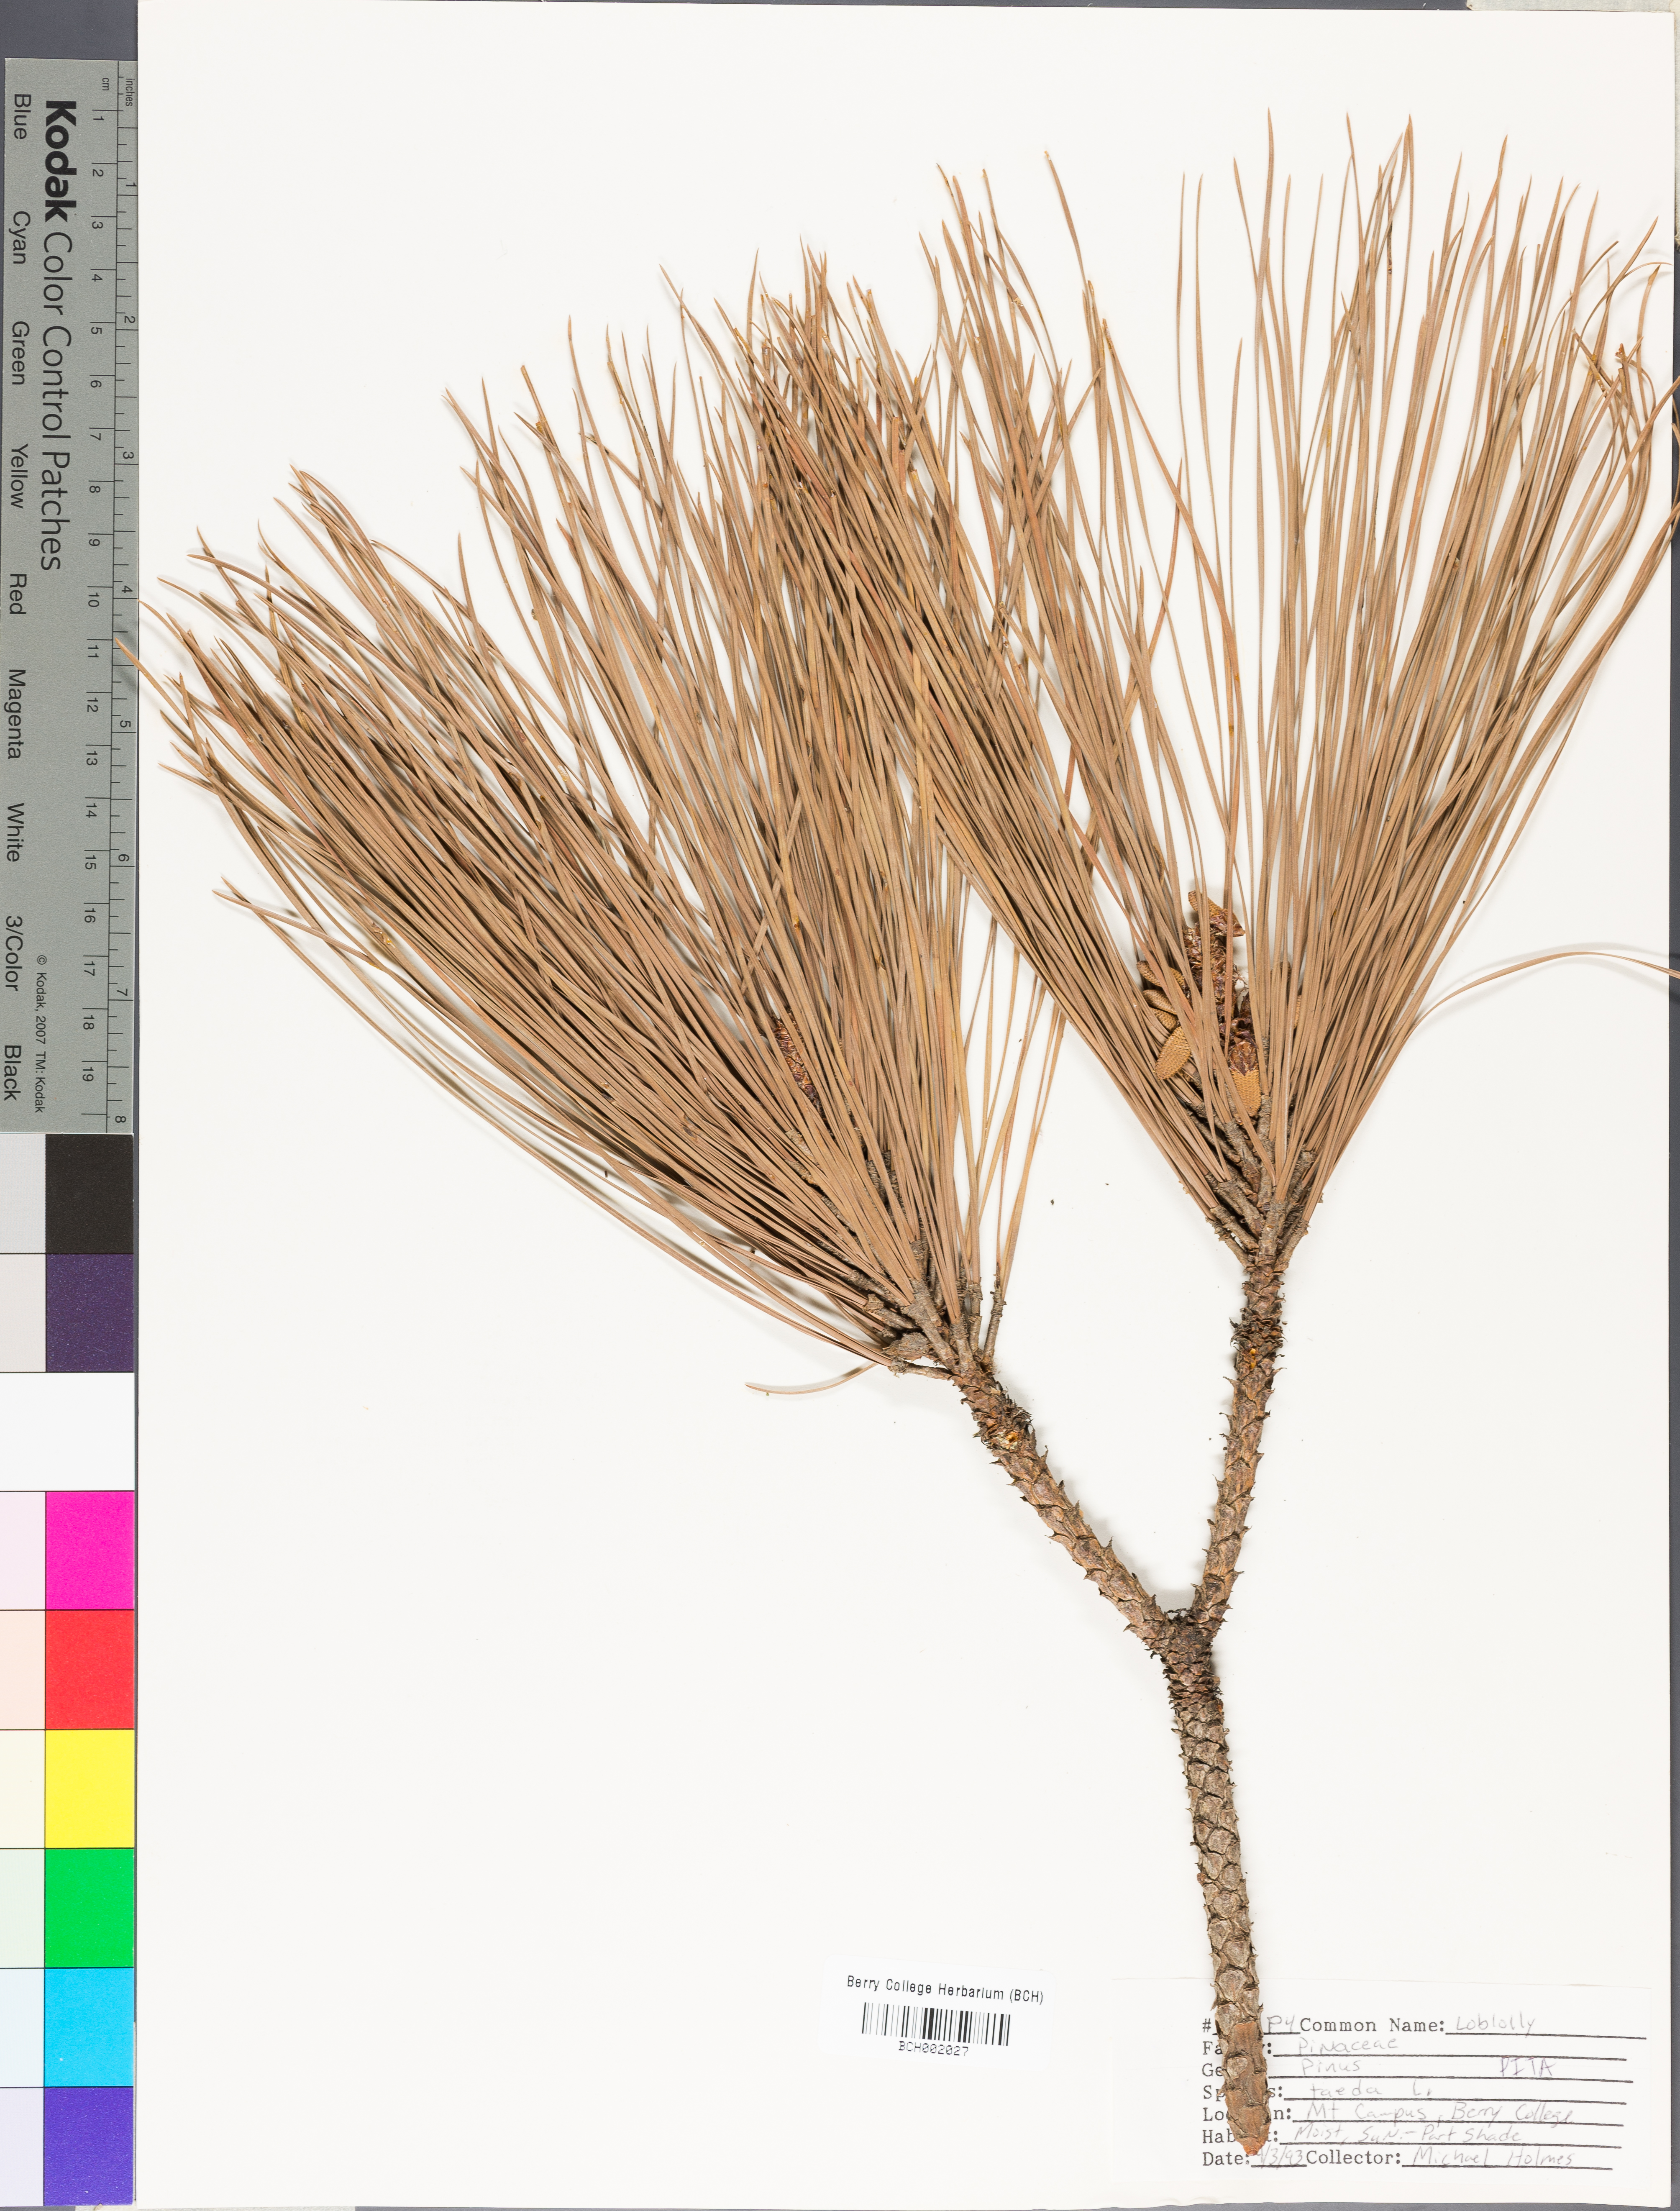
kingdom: Plantae
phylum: Tracheophyta
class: Pinopsida
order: Pinales
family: Pinaceae
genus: Pinus
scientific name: Pinus taeda
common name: Loblolly pine
